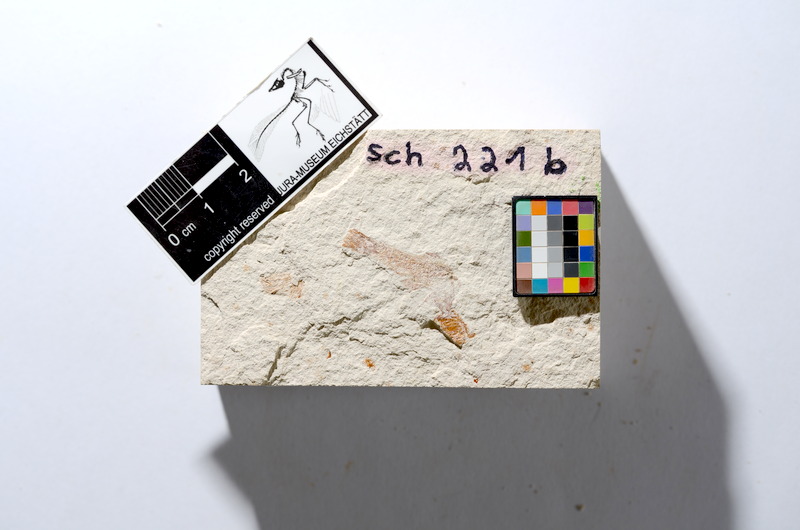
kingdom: Animalia
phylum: Chordata
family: Ascalaboidae
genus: Tharsis
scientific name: Tharsis dubius
